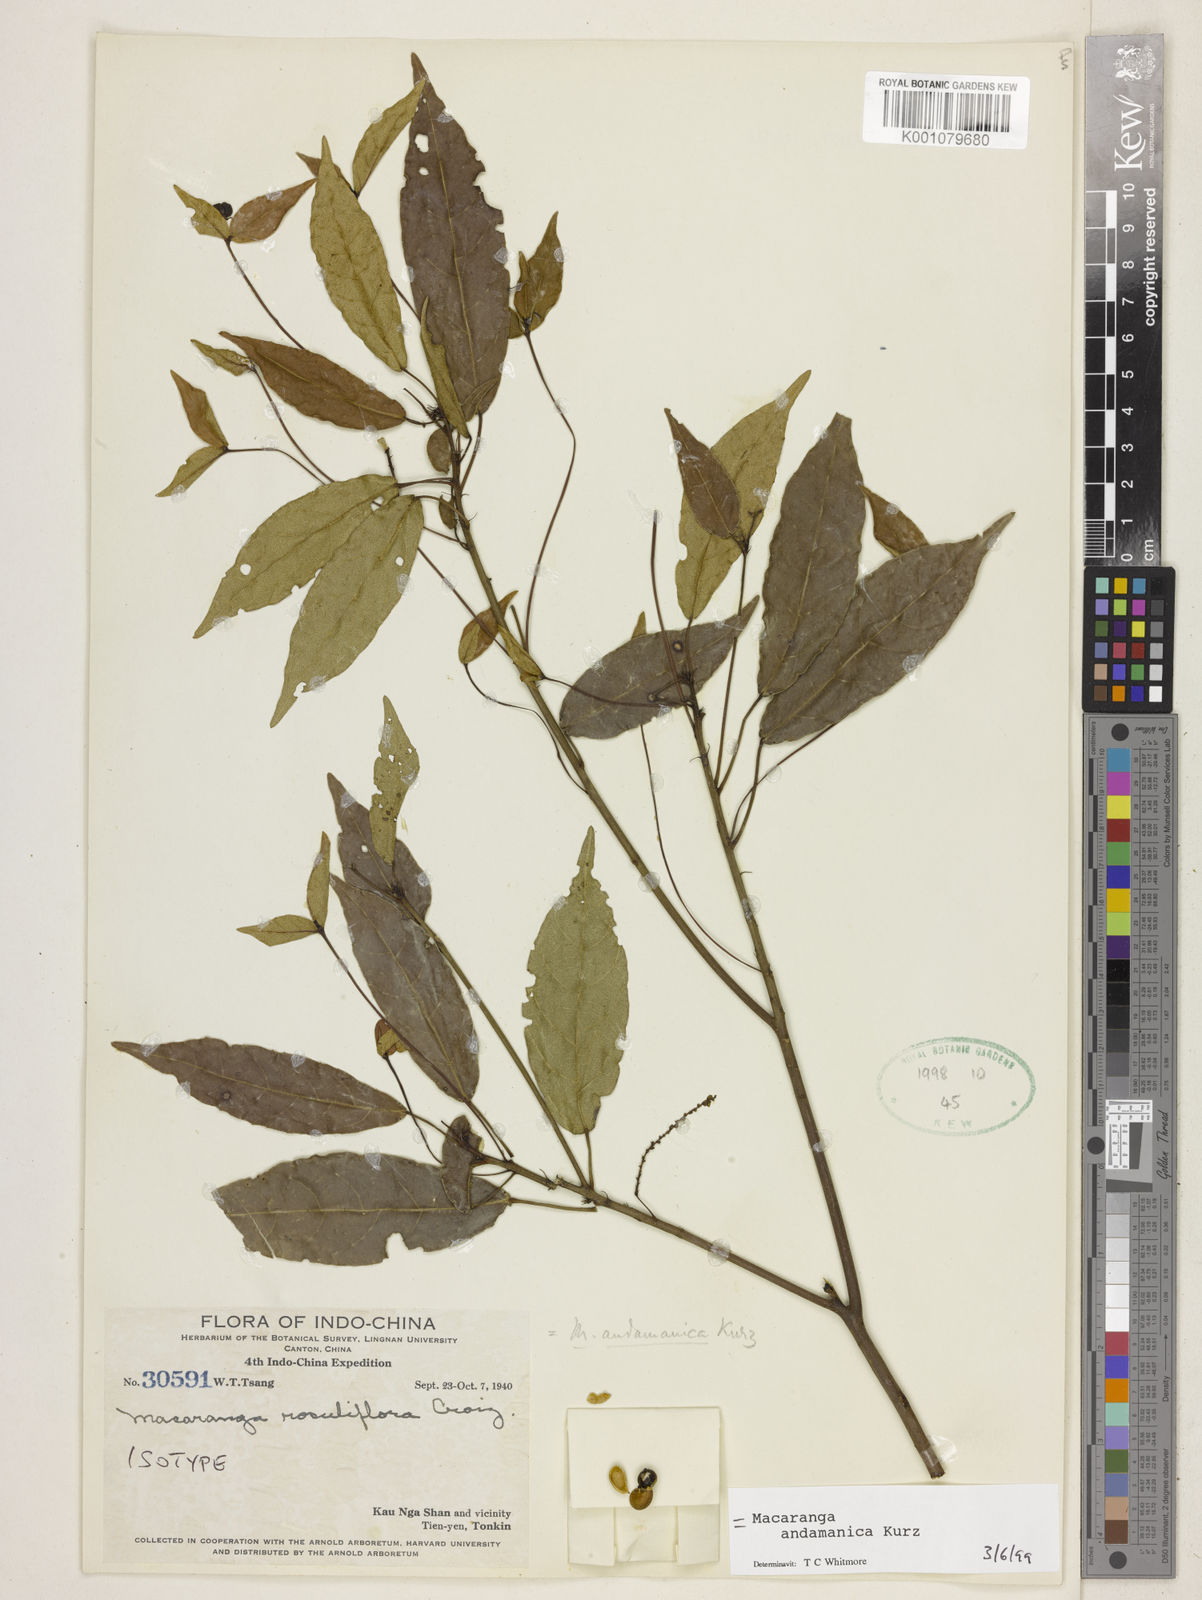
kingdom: Plantae
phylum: Tracheophyta
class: Magnoliopsida
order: Malpighiales
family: Euphorbiaceae
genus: Macaranga
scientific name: Macaranga andamanica
